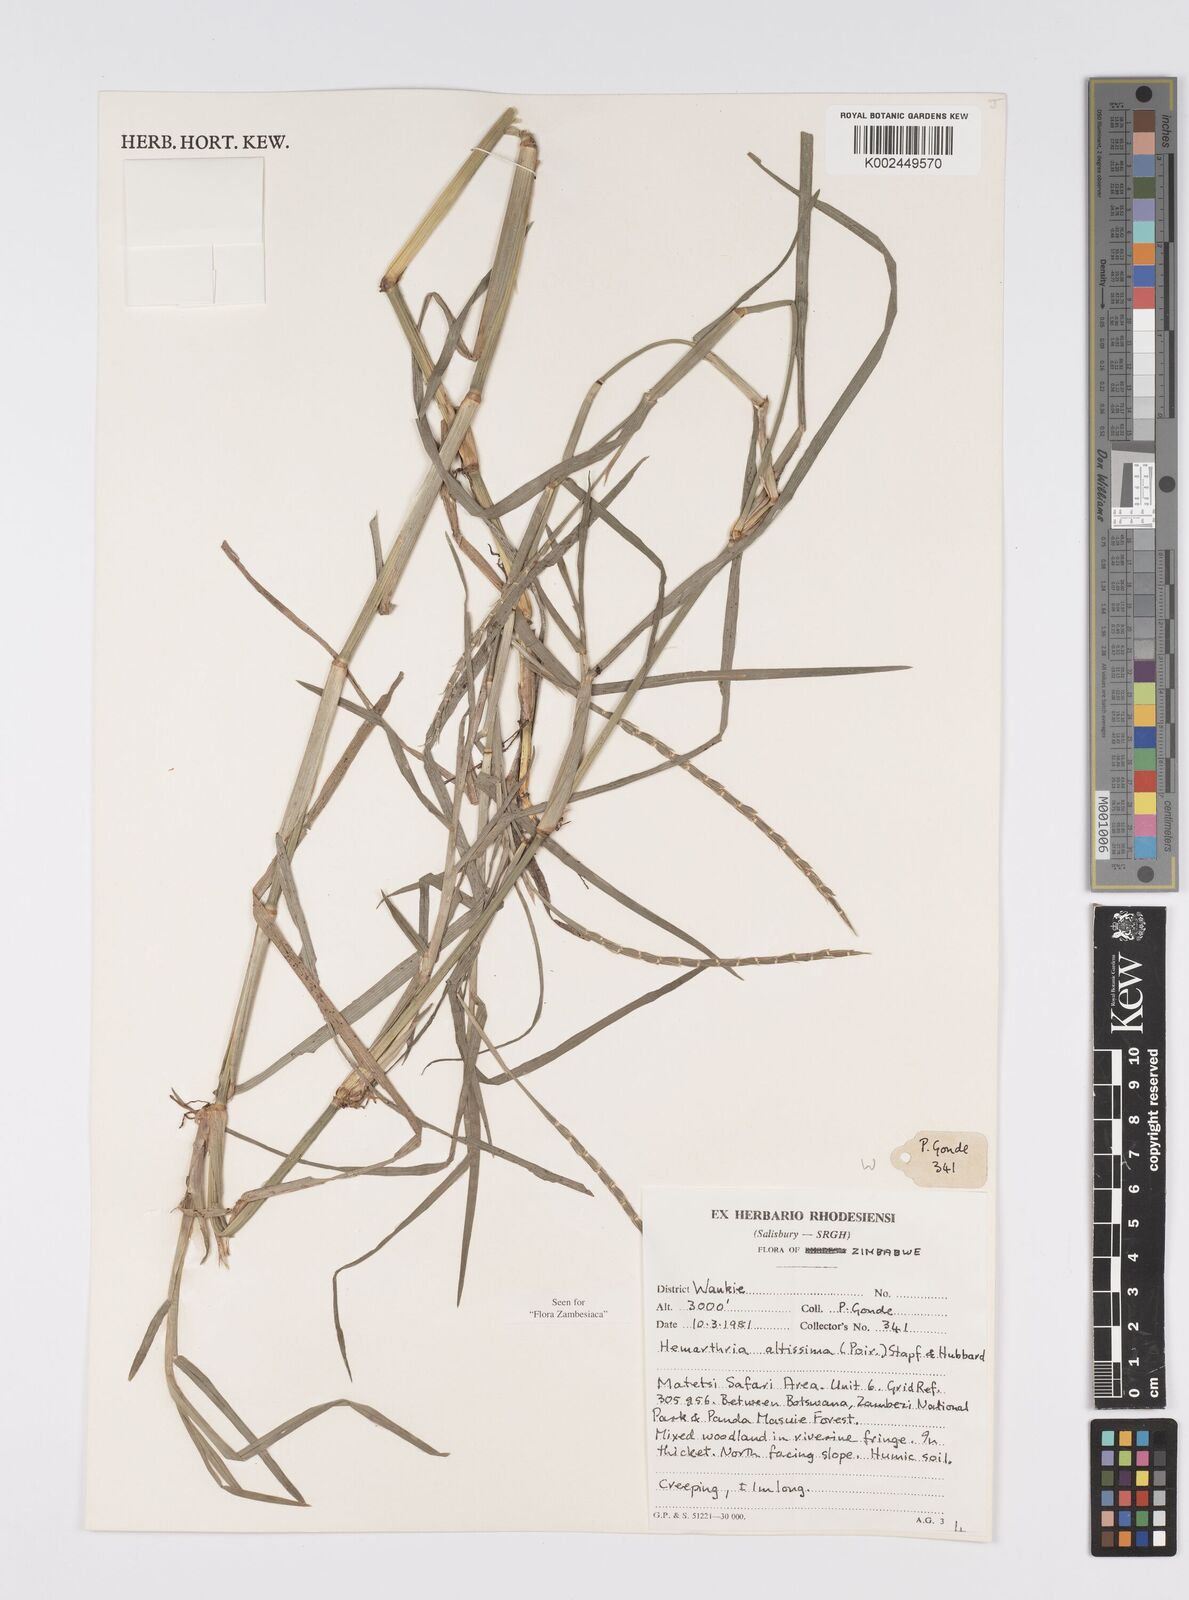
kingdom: Plantae
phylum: Tracheophyta
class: Liliopsida
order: Poales
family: Poaceae
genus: Hemarthria
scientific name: Hemarthria altissima
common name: African jointgrass
